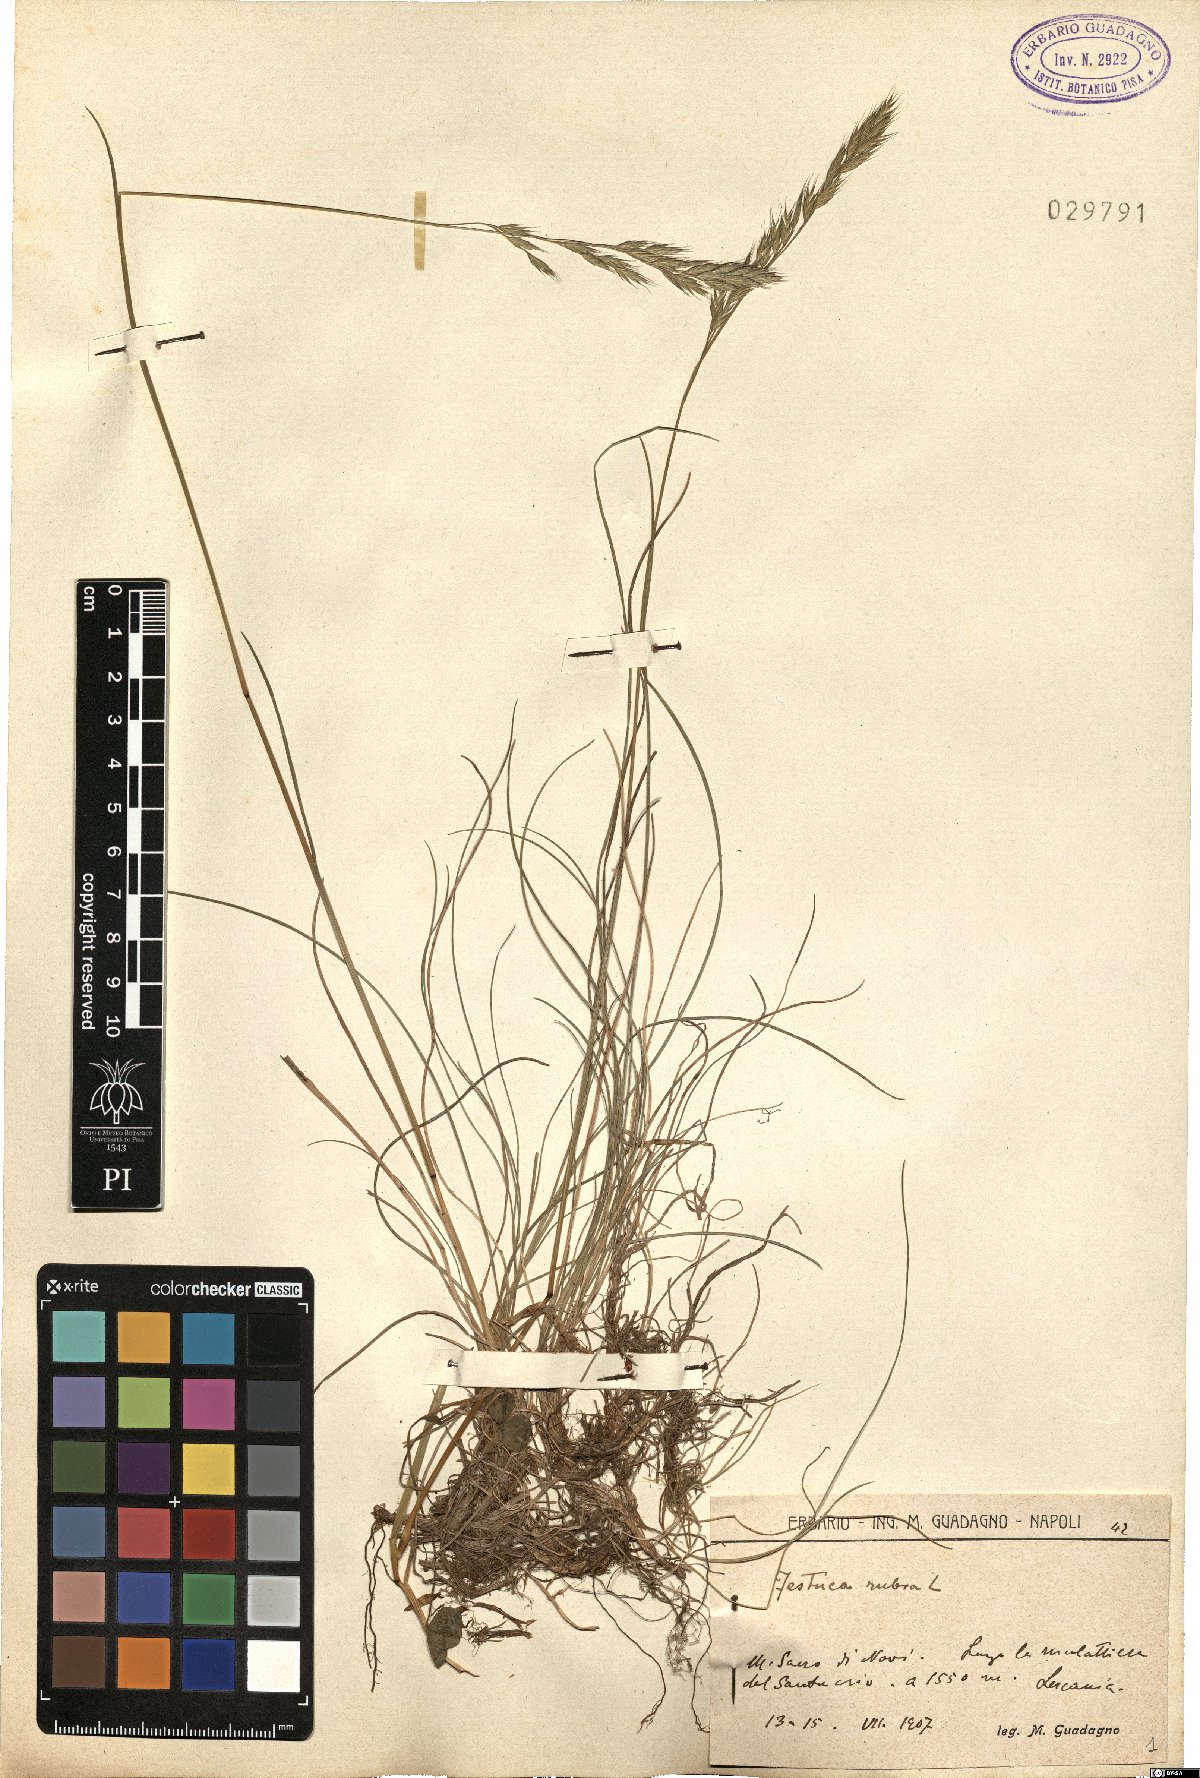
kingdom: Plantae
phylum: Tracheophyta
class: Liliopsida
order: Poales
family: Poaceae
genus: Festuca
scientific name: Festuca rubra
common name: Red fescue
